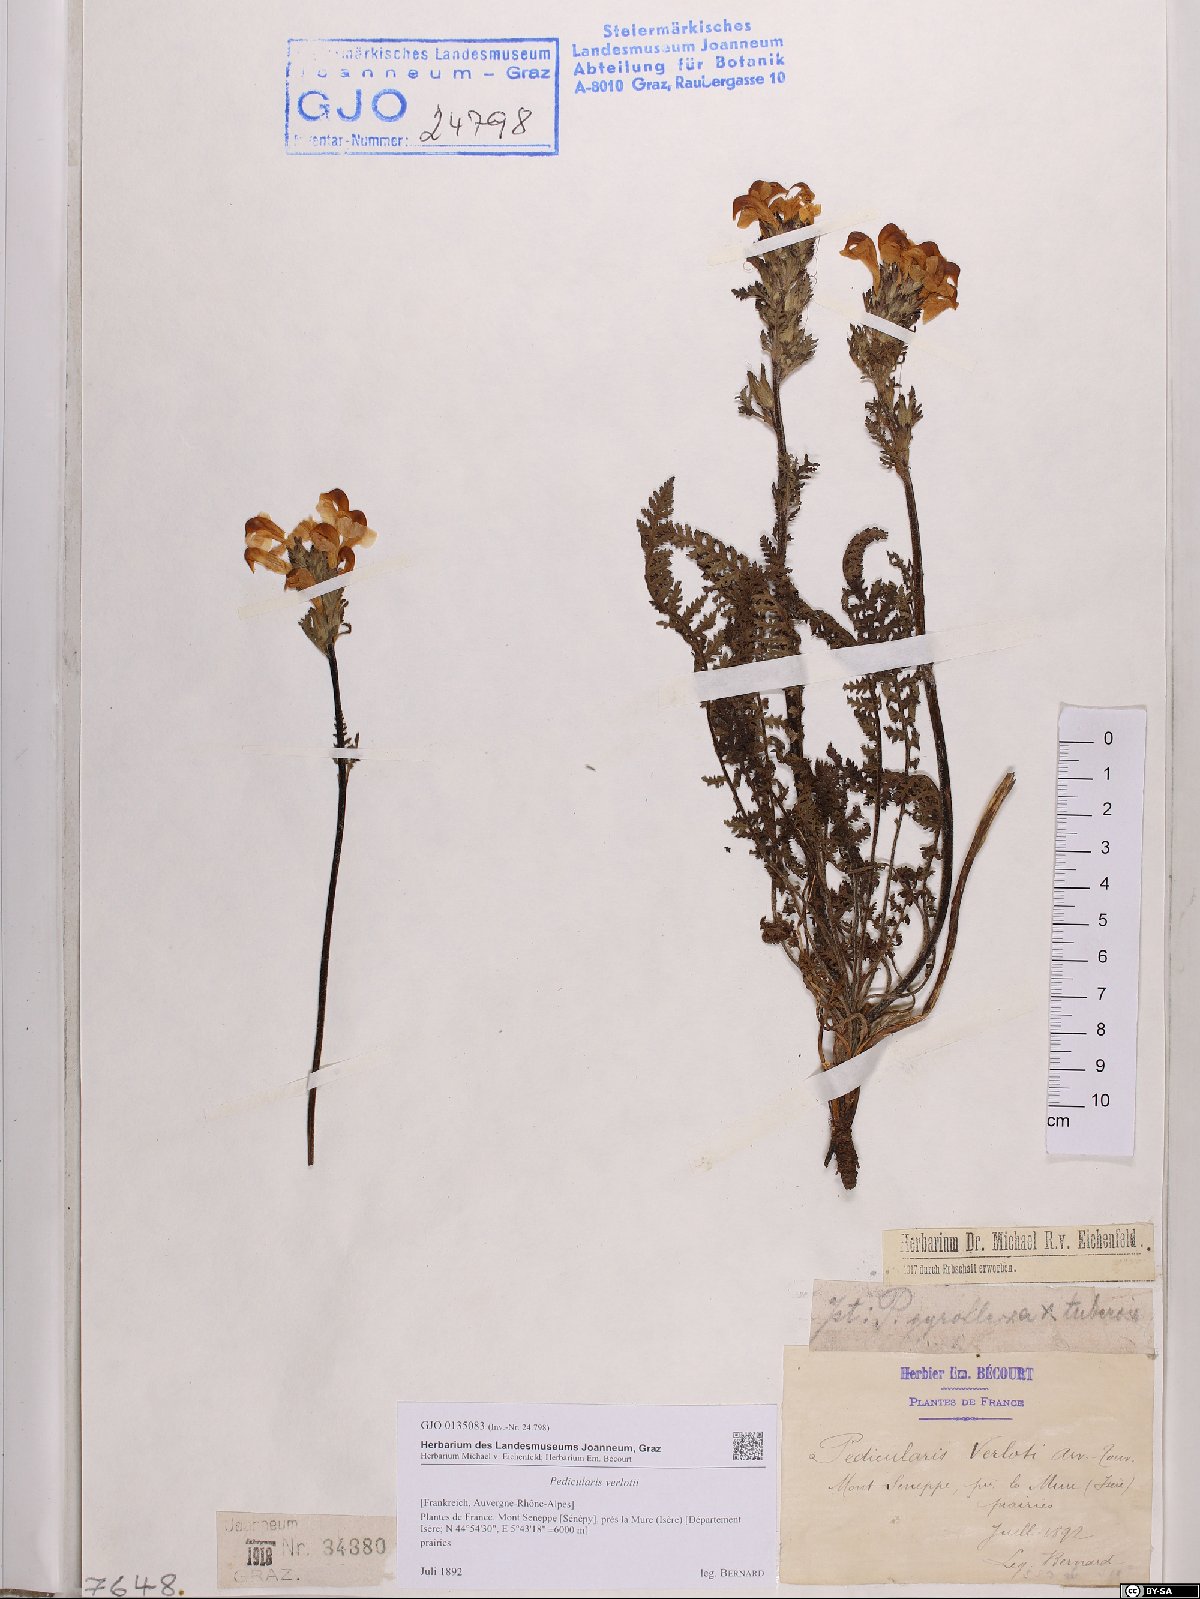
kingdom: Plantae
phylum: Tracheophyta
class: Magnoliopsida
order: Lamiales
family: Orobanchaceae
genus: Pedicularis
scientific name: Pedicularis verlotii
